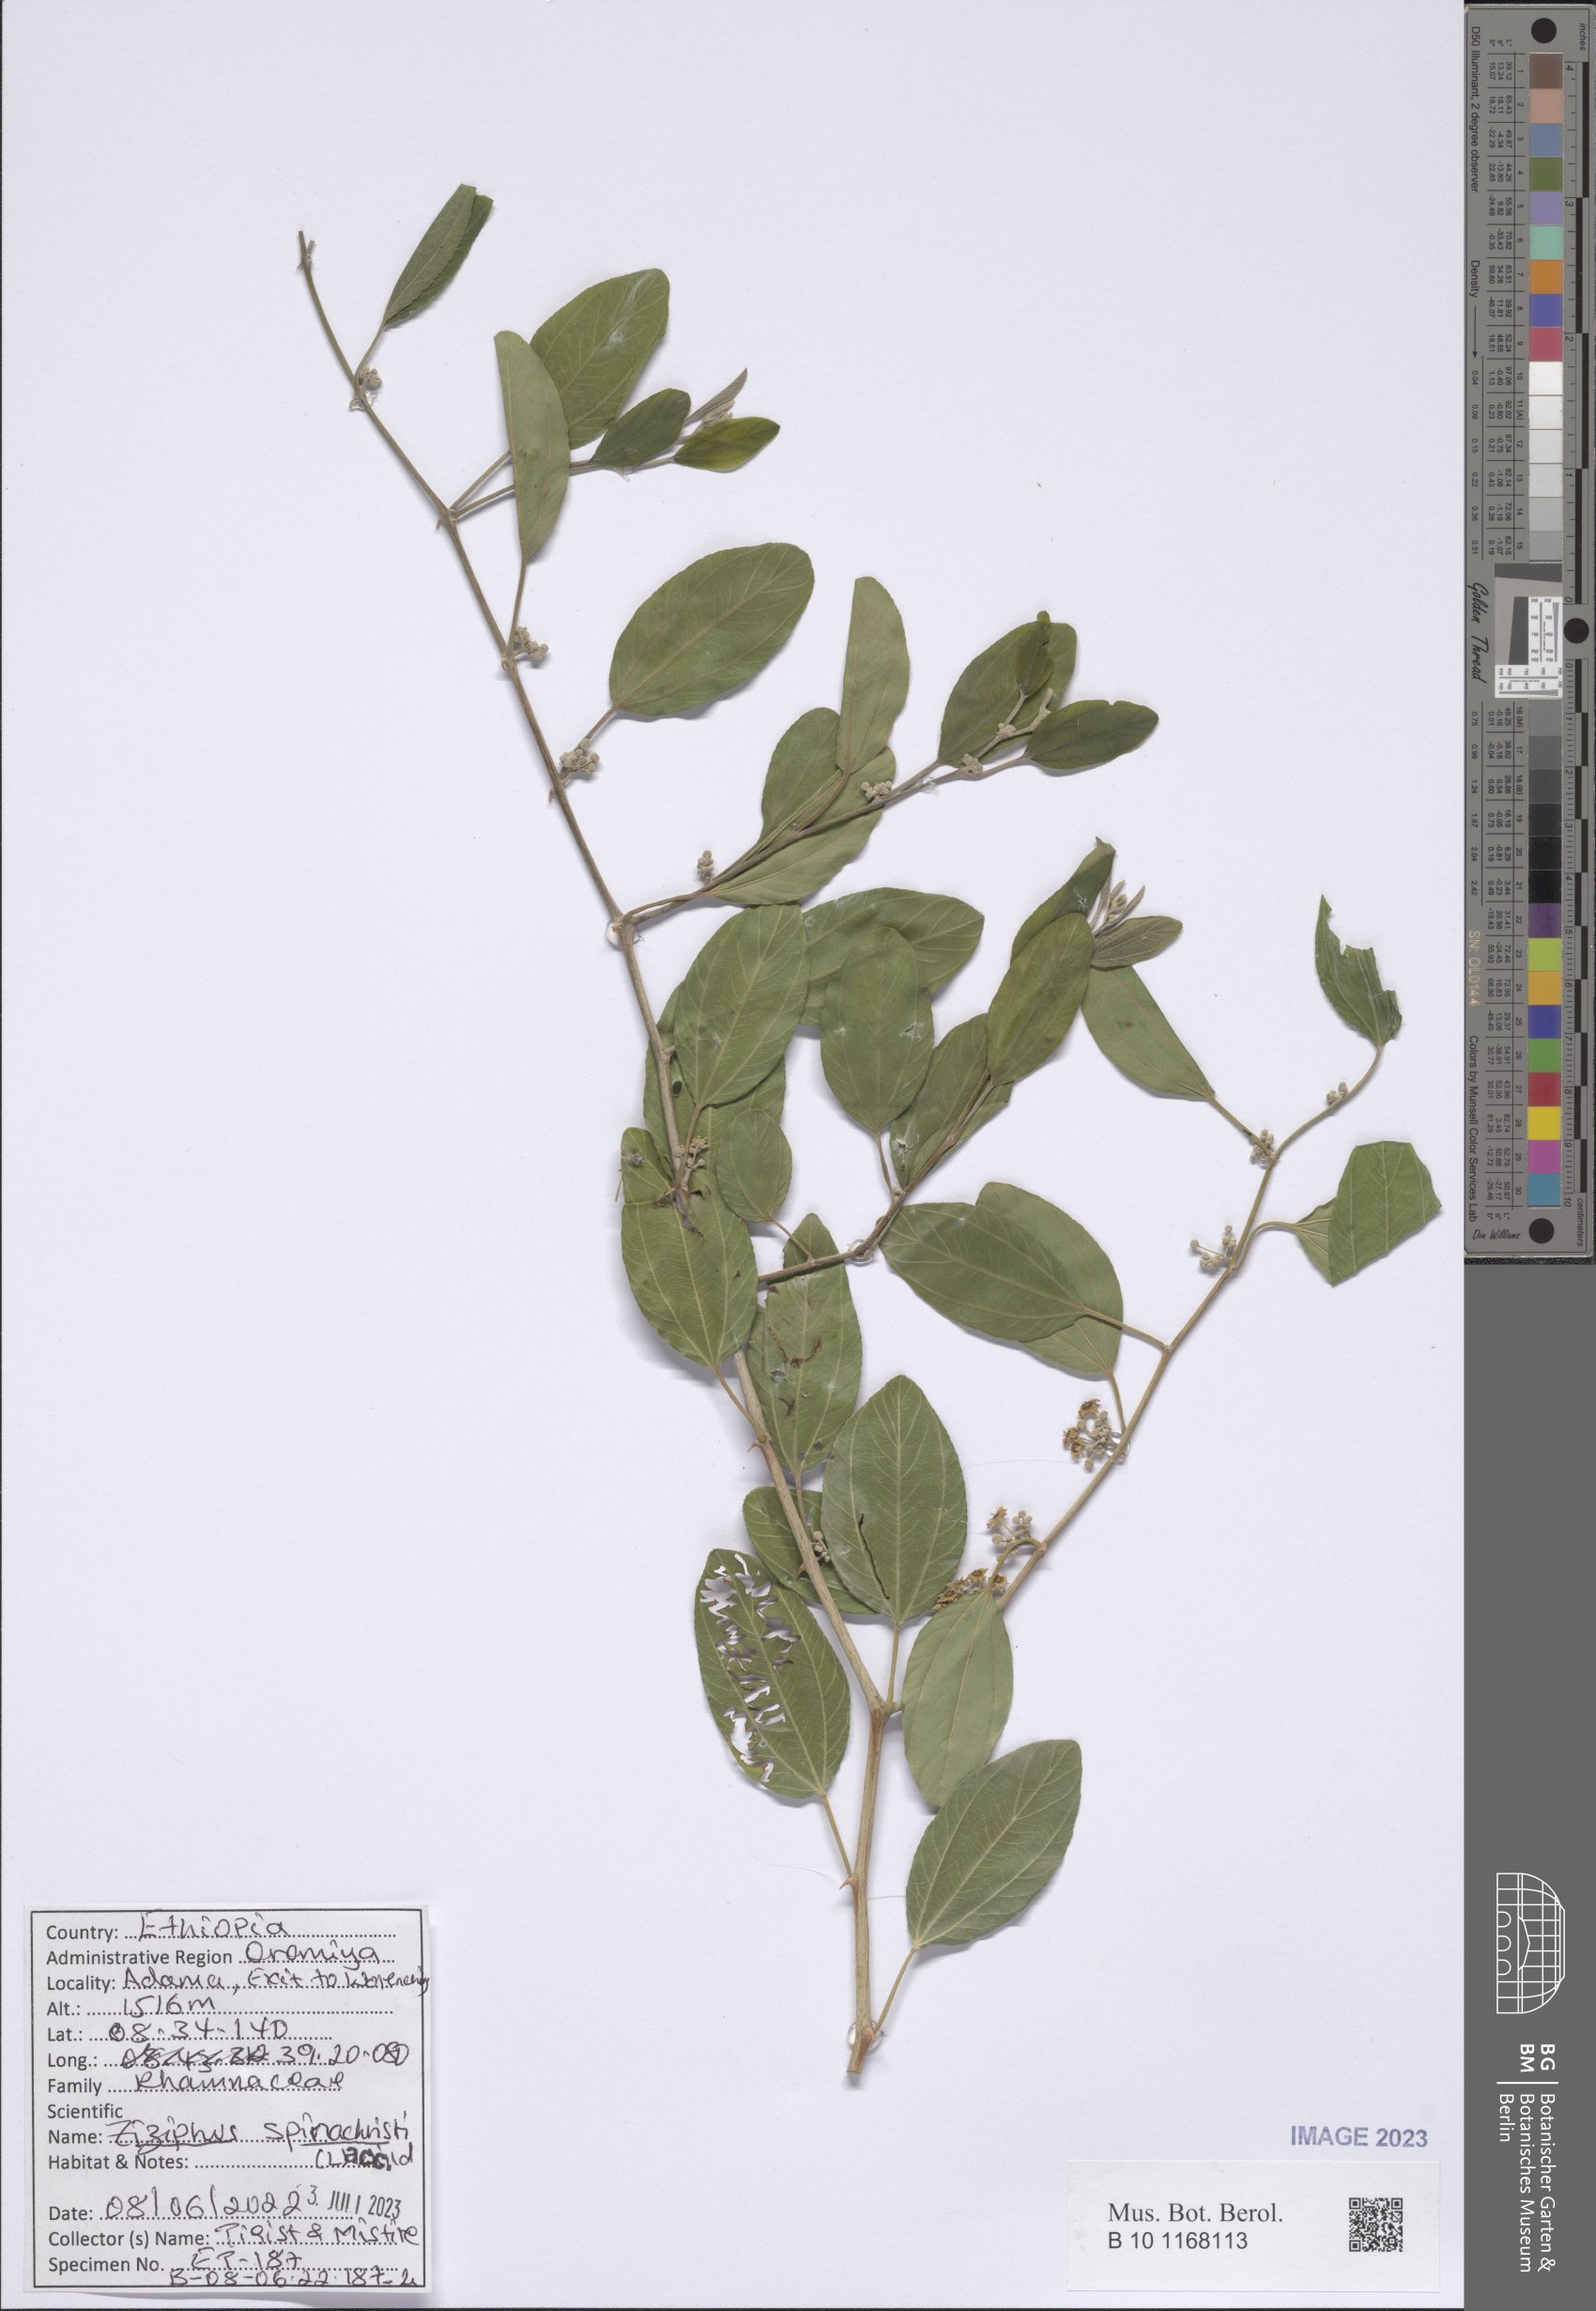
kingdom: Plantae
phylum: Tracheophyta
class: Magnoliopsida
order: Rosales
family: Rhamnaceae
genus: Ziziphus
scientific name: Ziziphus spina-christi
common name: Syrian christ-thorn
